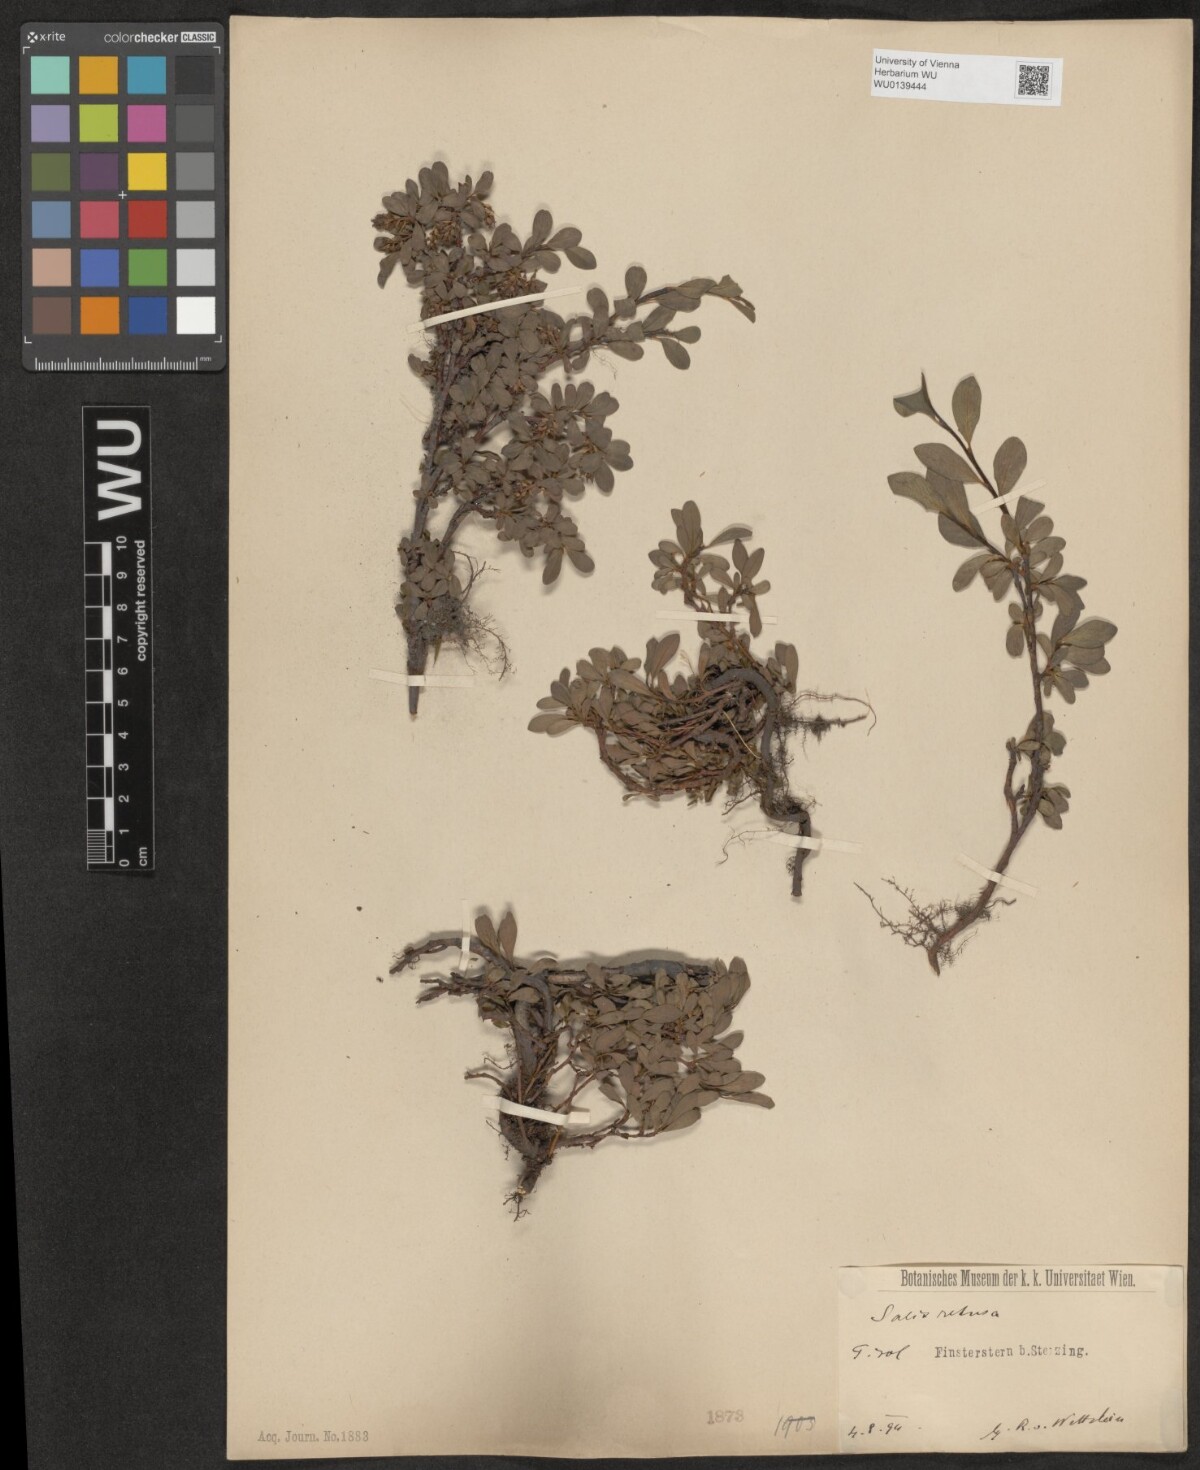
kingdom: Plantae
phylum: Tracheophyta
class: Magnoliopsida
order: Malpighiales
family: Salicaceae
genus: Salix
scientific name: Salix retusa
